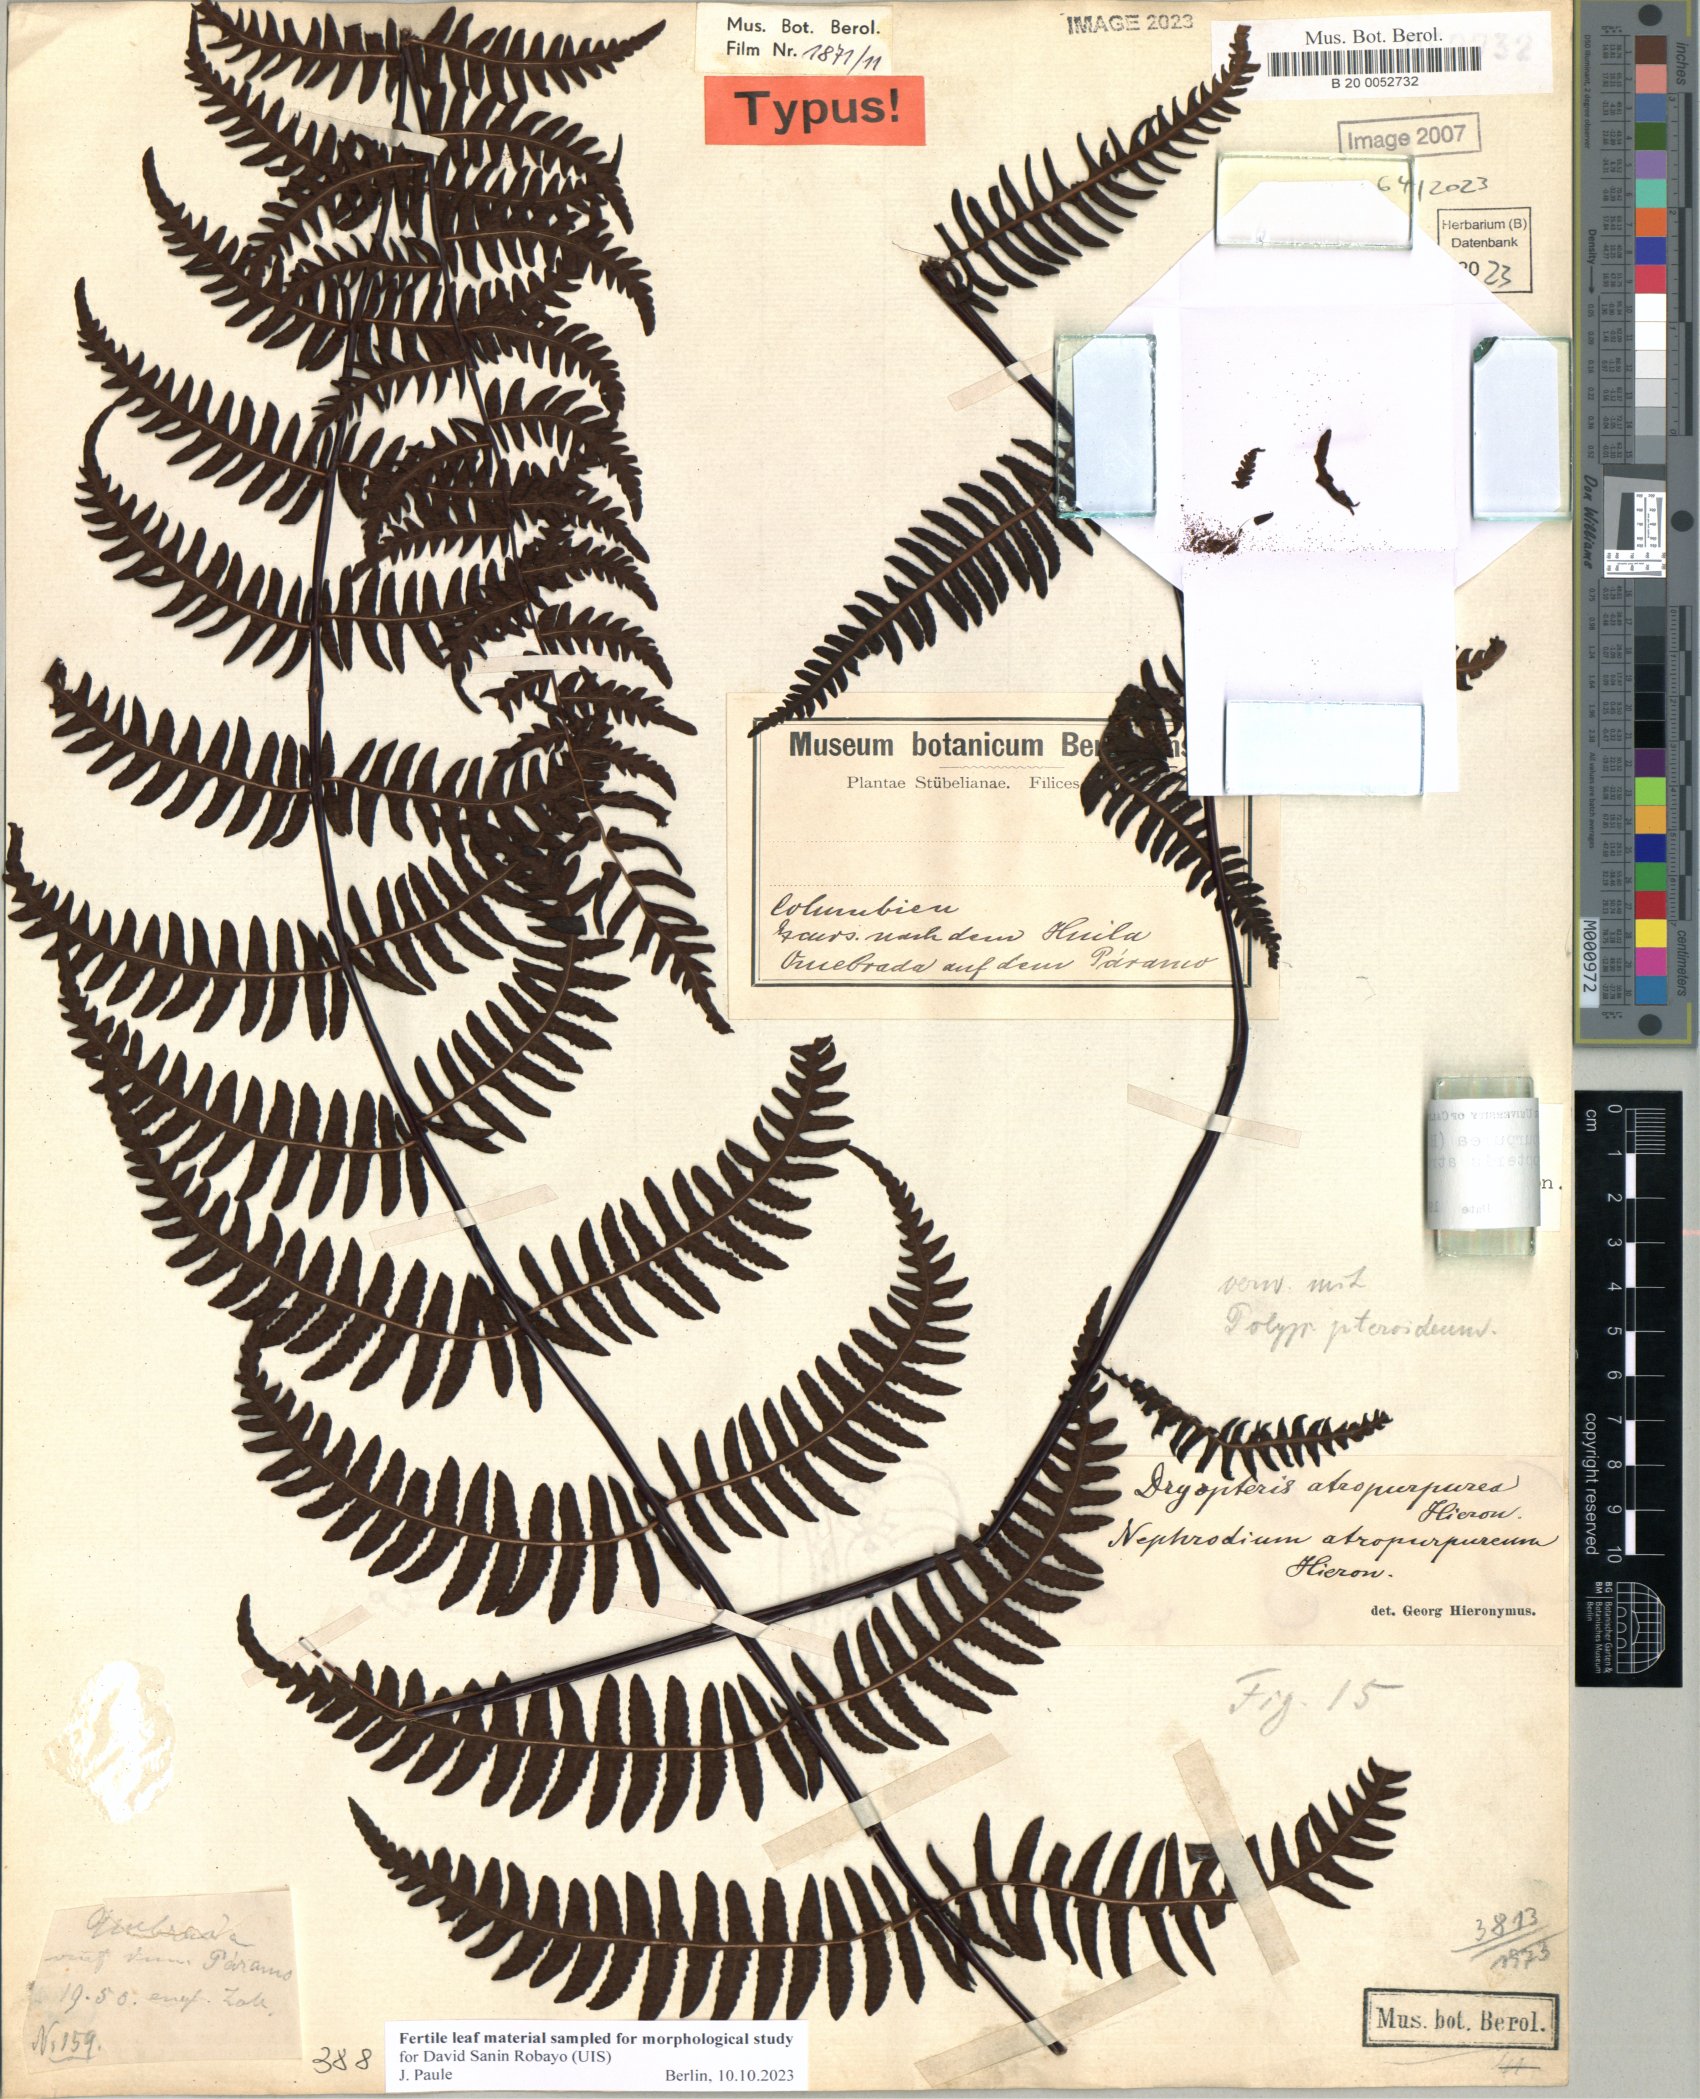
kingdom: Plantae
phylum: Tracheophyta
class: Polypodiopsida
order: Polypodiales
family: Dryopteridaceae
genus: Dryopteris
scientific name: Dryopteris atropurpurea
